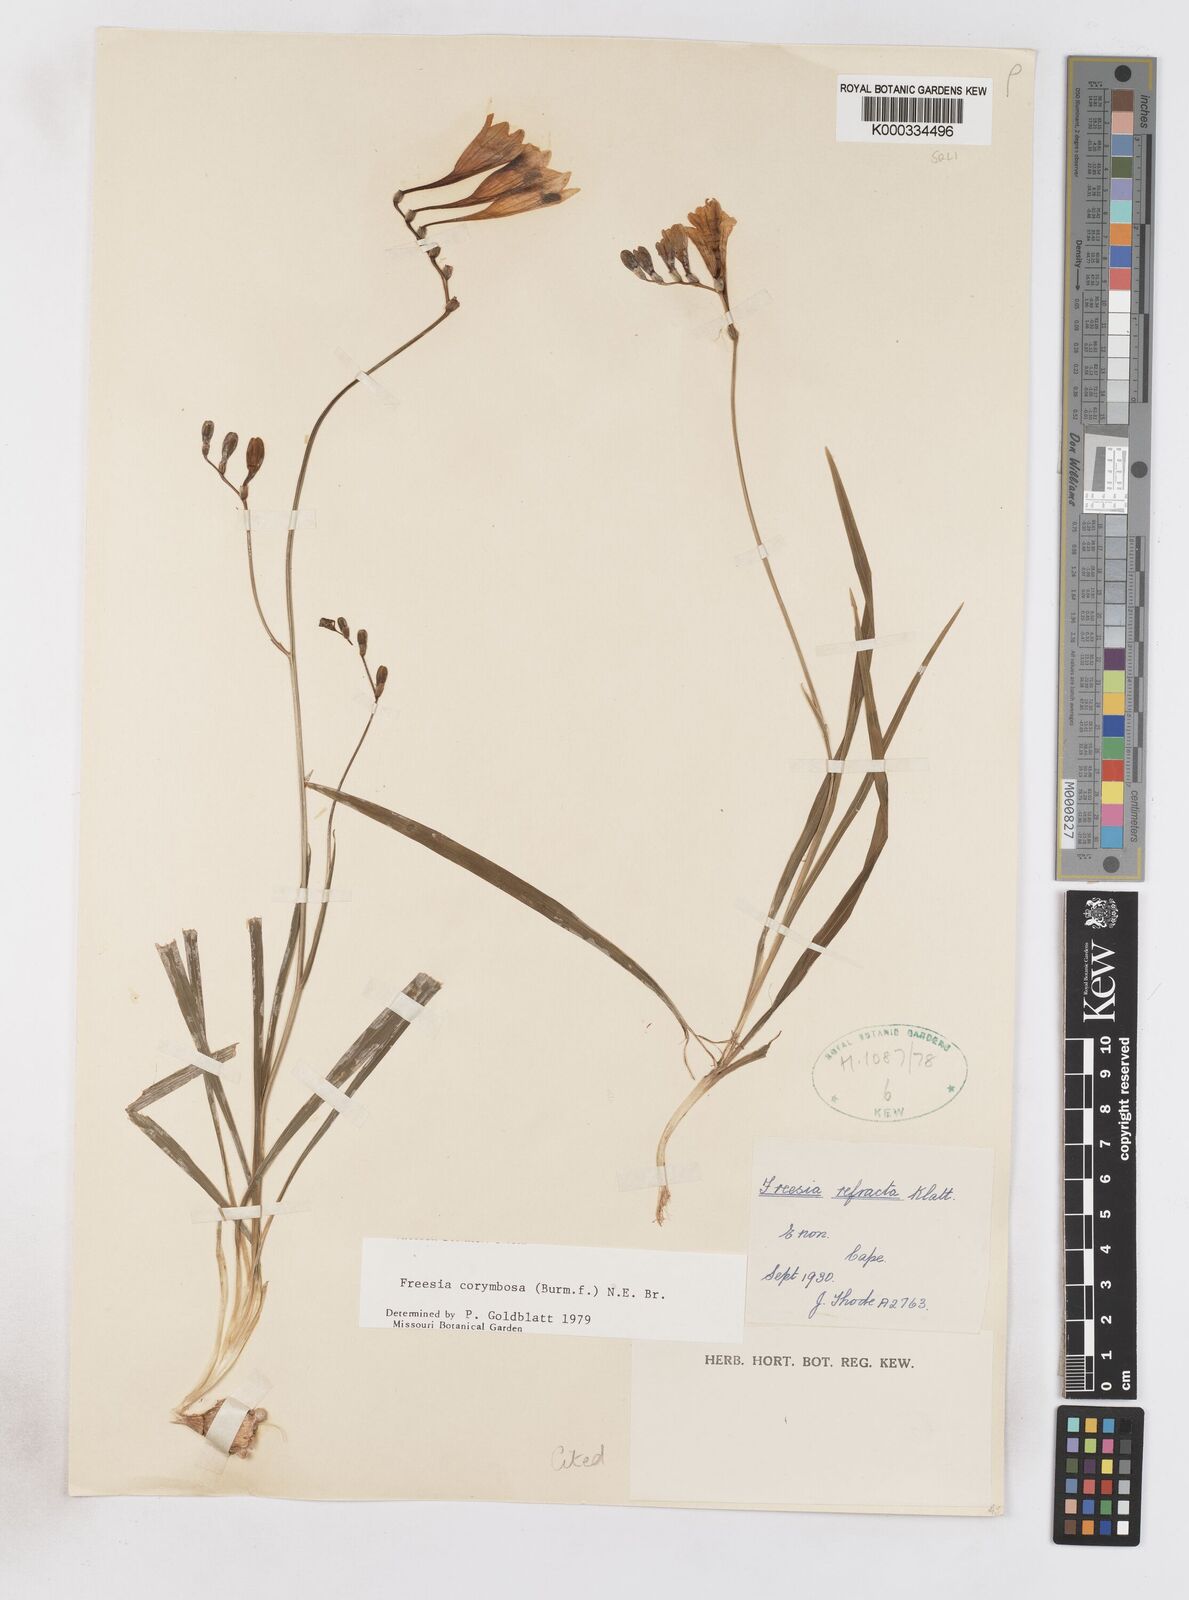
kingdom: Plantae
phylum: Tracheophyta
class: Liliopsida
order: Asparagales
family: Iridaceae
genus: Freesia
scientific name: Freesia corymbosa
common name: Common freesia
